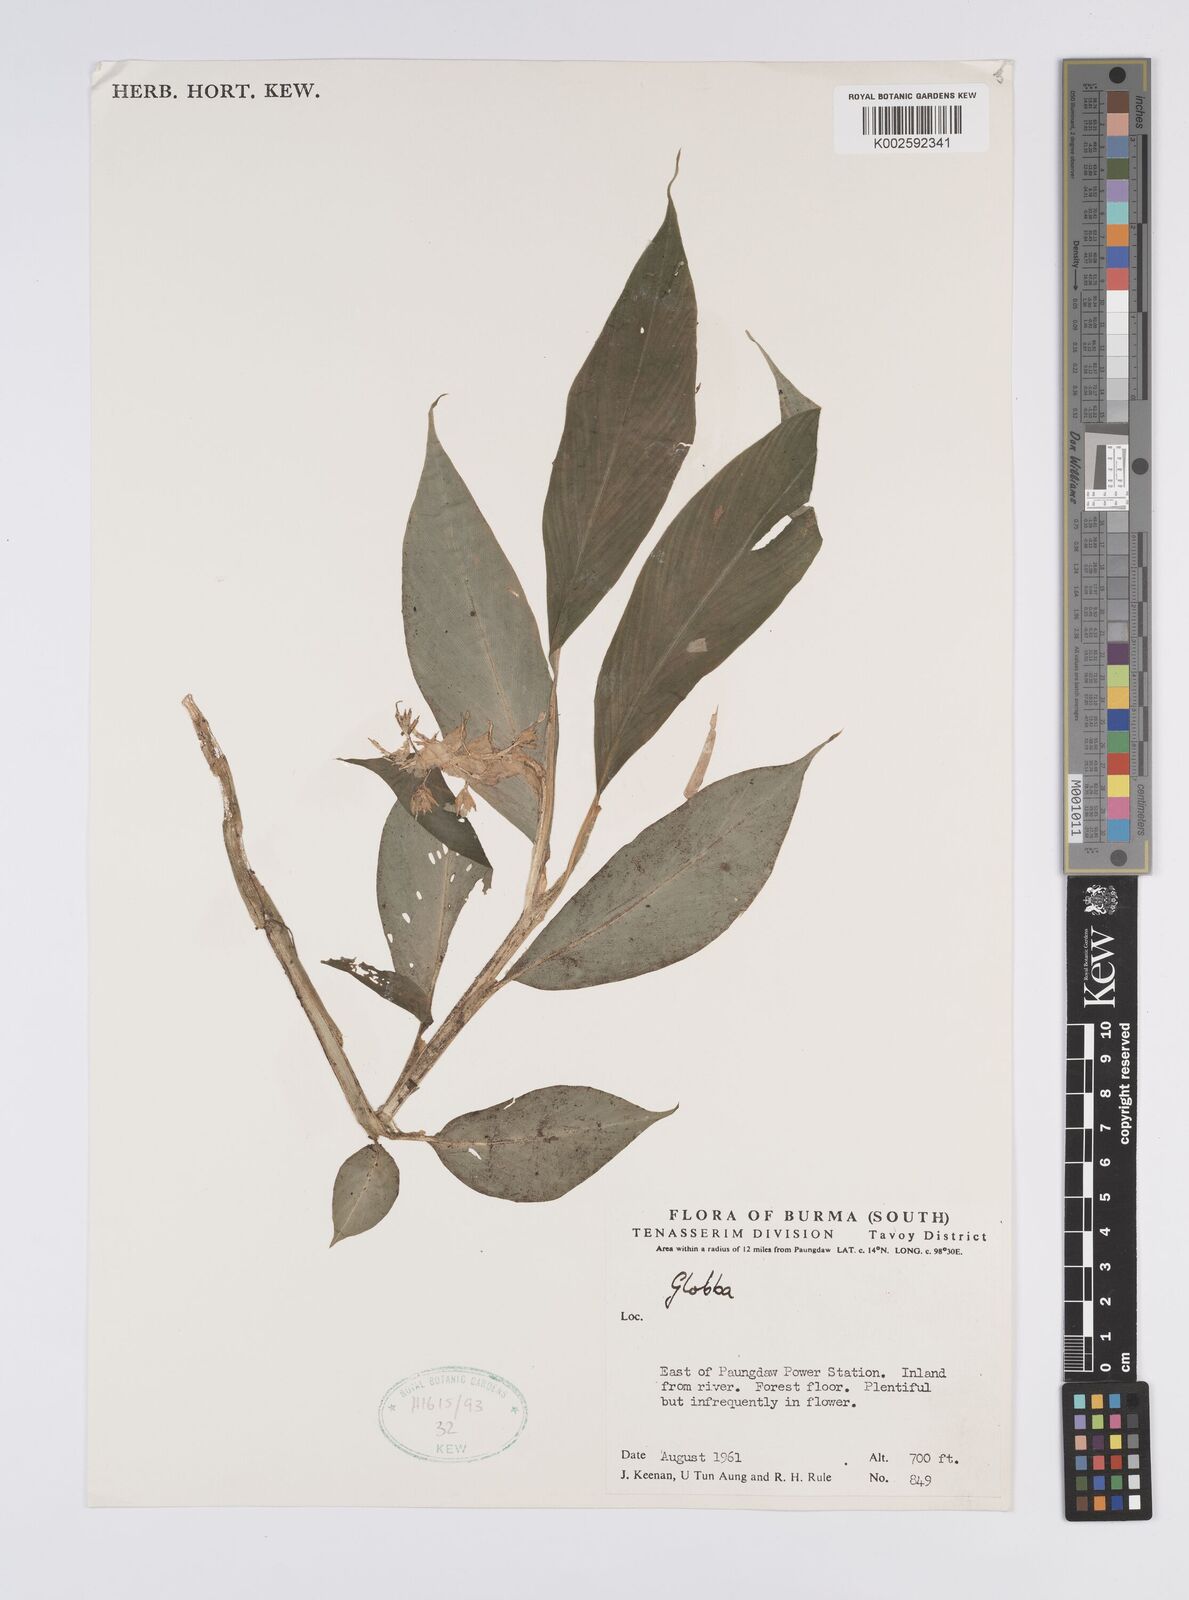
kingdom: Plantae
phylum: Tracheophyta
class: Liliopsida
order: Zingiberales
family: Zingiberaceae
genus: Globba
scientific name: Globba
